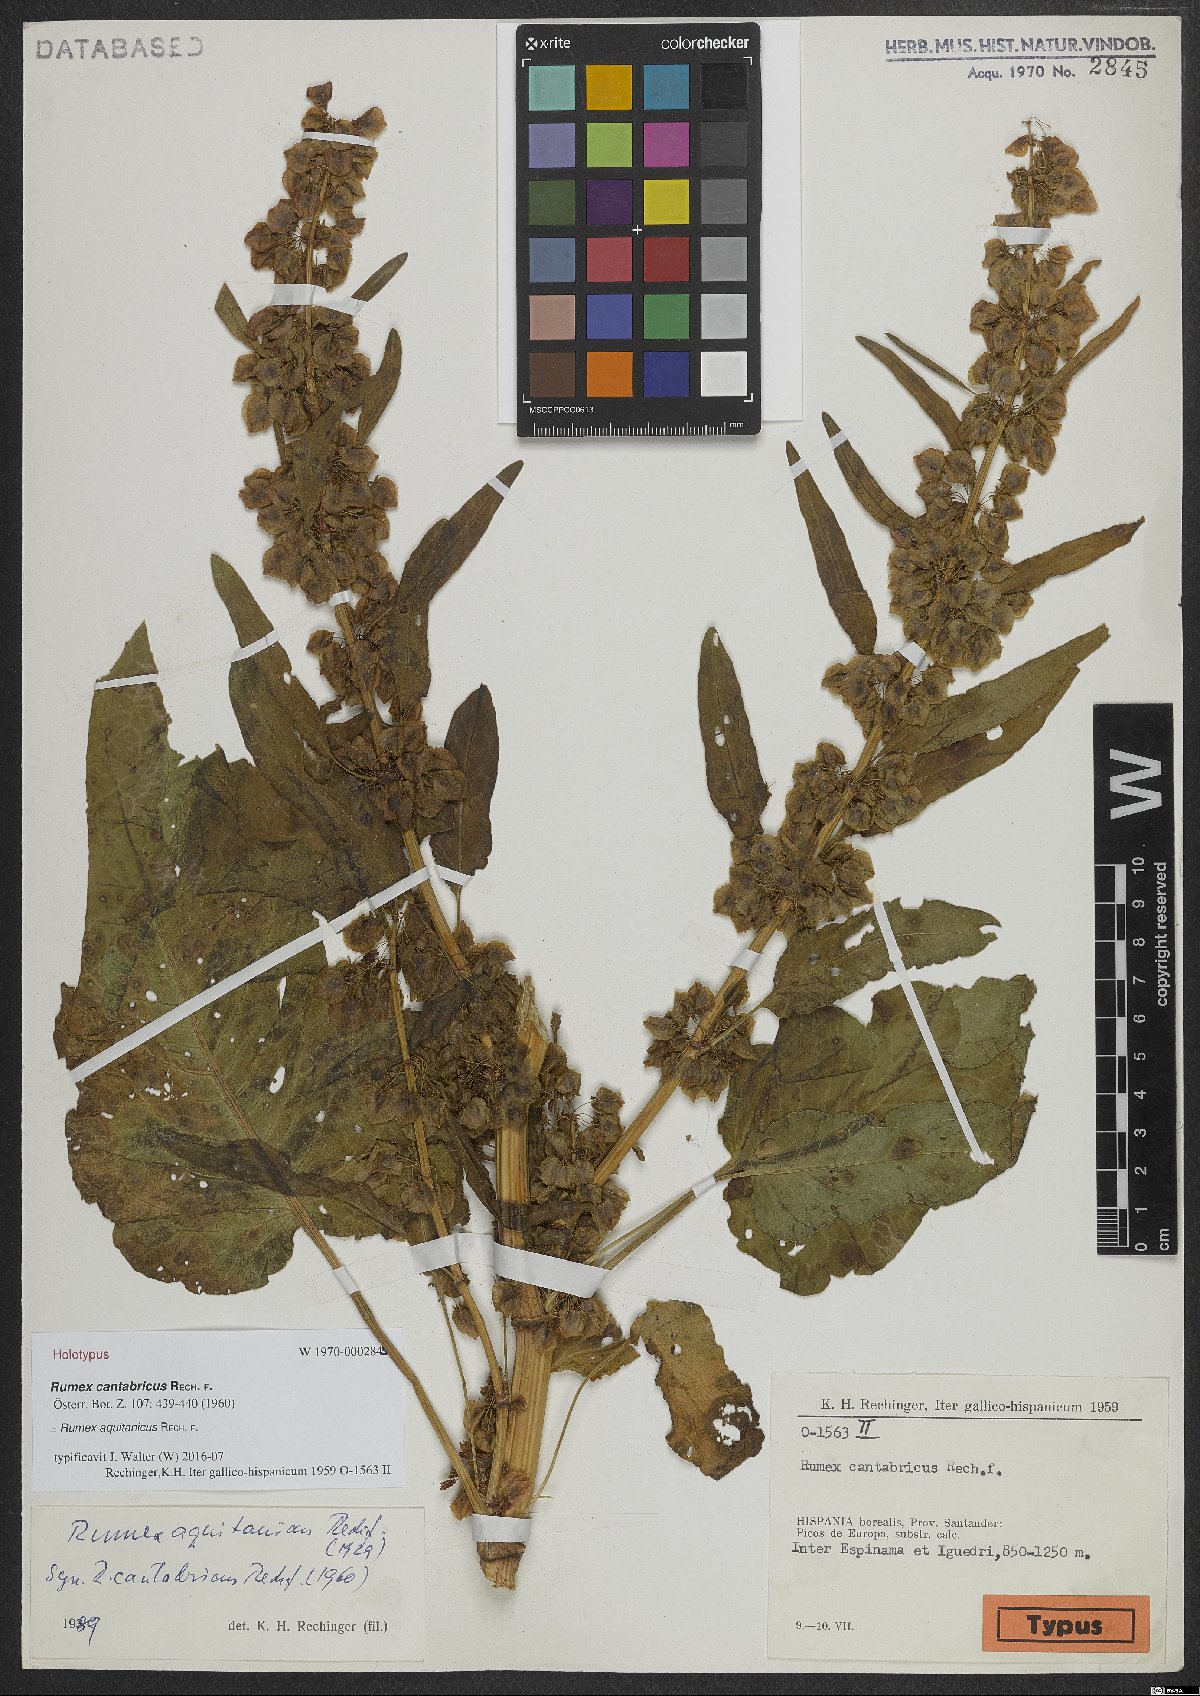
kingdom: Plantae
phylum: Tracheophyta
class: Magnoliopsida
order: Caryophyllales
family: Polygonaceae
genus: Rumex
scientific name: Rumex aquitanicus
